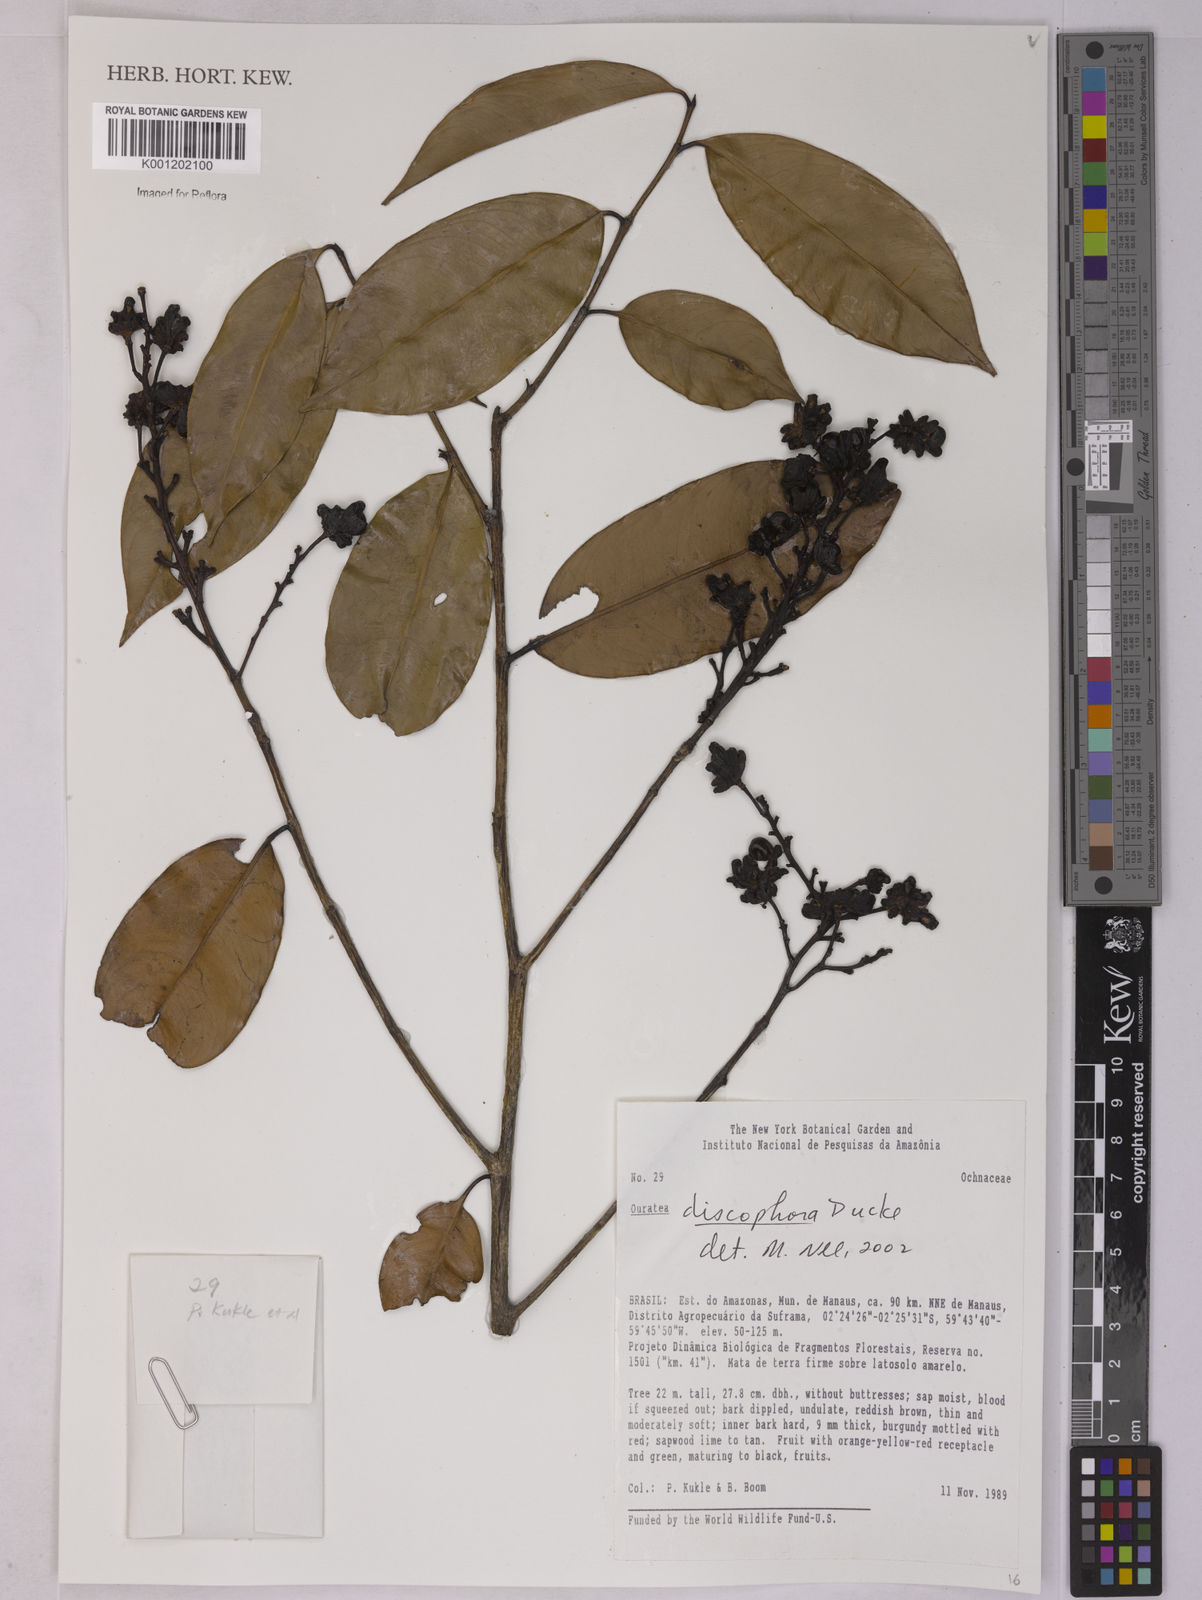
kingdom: Plantae
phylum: Tracheophyta
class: Magnoliopsida
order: Malpighiales
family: Ochnaceae
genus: Ouratea
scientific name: Ouratea discophora
